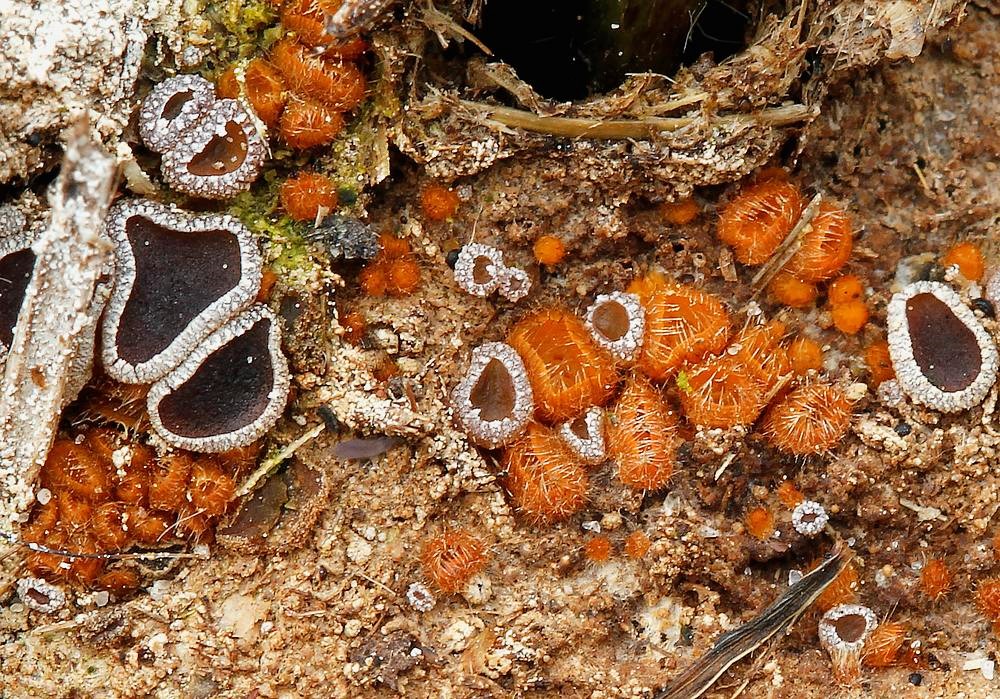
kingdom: Fungi
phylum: Ascomycota
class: Pezizomycetes
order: Pezizales
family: Ascobolaceae
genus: Ascobolus
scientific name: Ascobolus furfuraceus
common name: almindelig prikbæger
